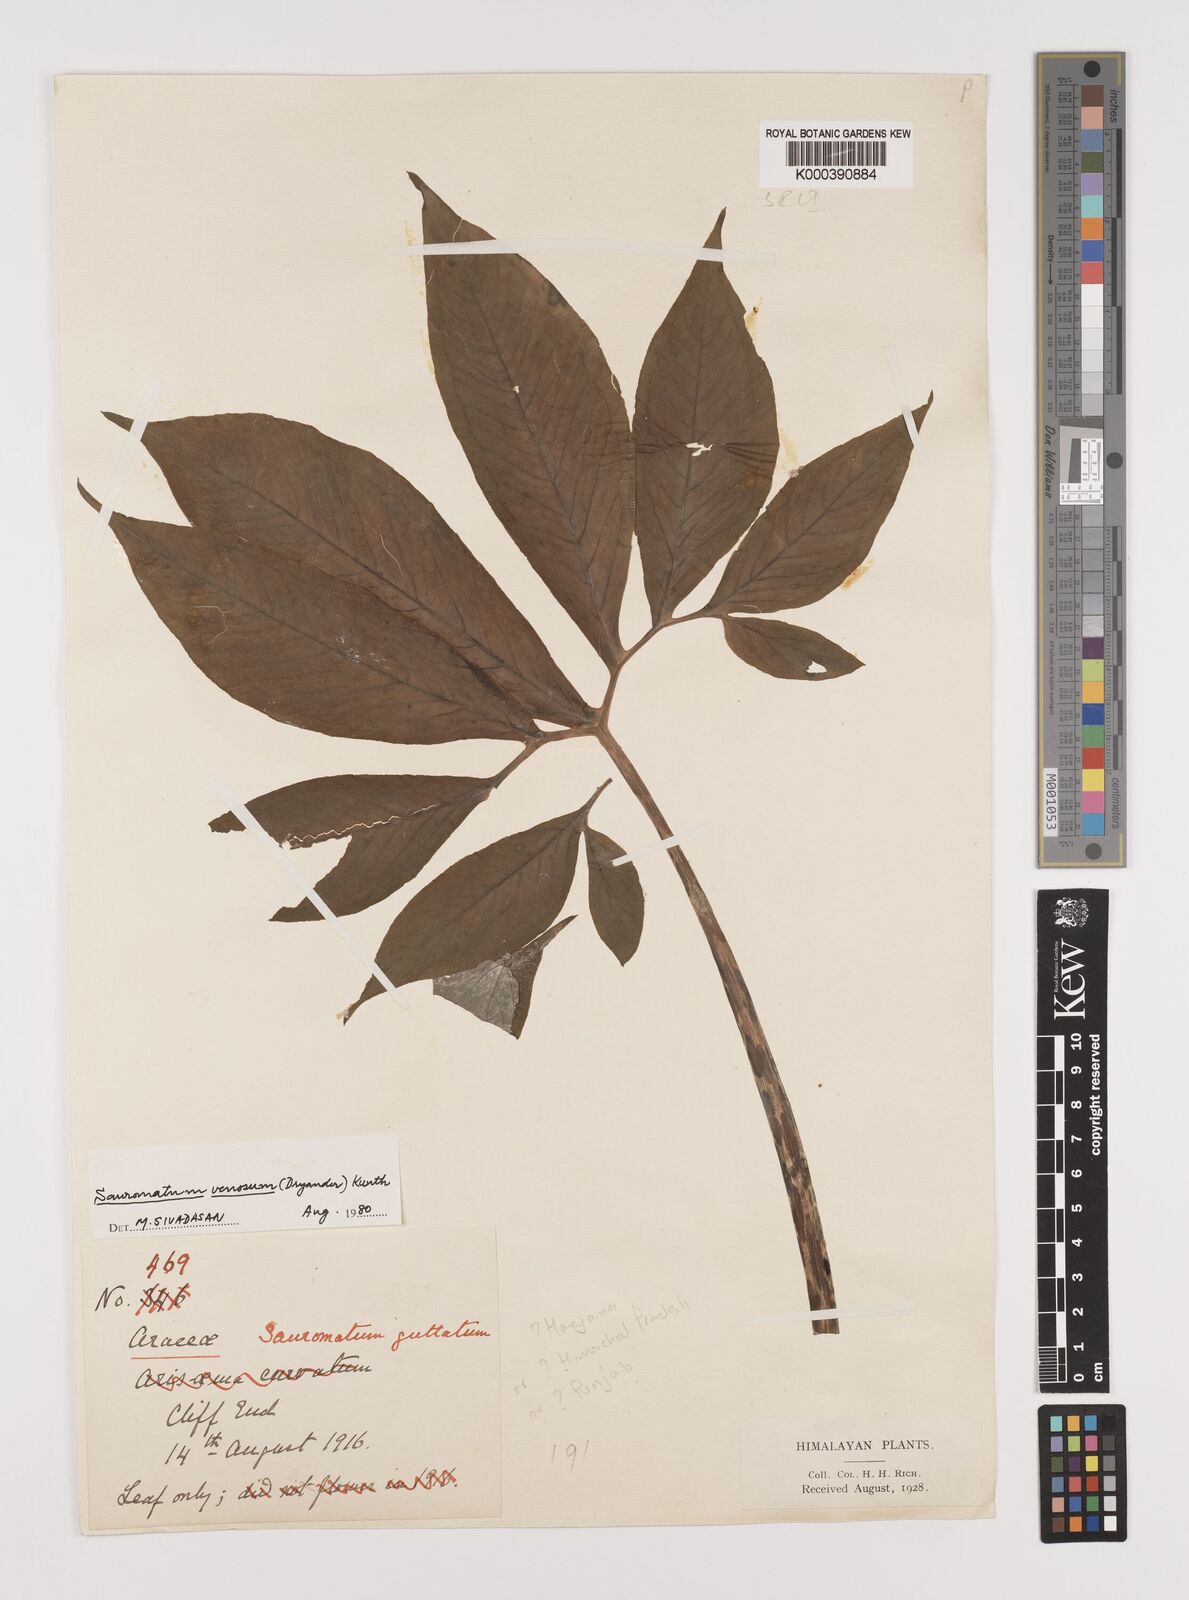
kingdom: Plantae
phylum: Tracheophyta
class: Liliopsida
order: Alismatales
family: Araceae
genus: Sauromatum
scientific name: Sauromatum venosum
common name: Voodoo lily
